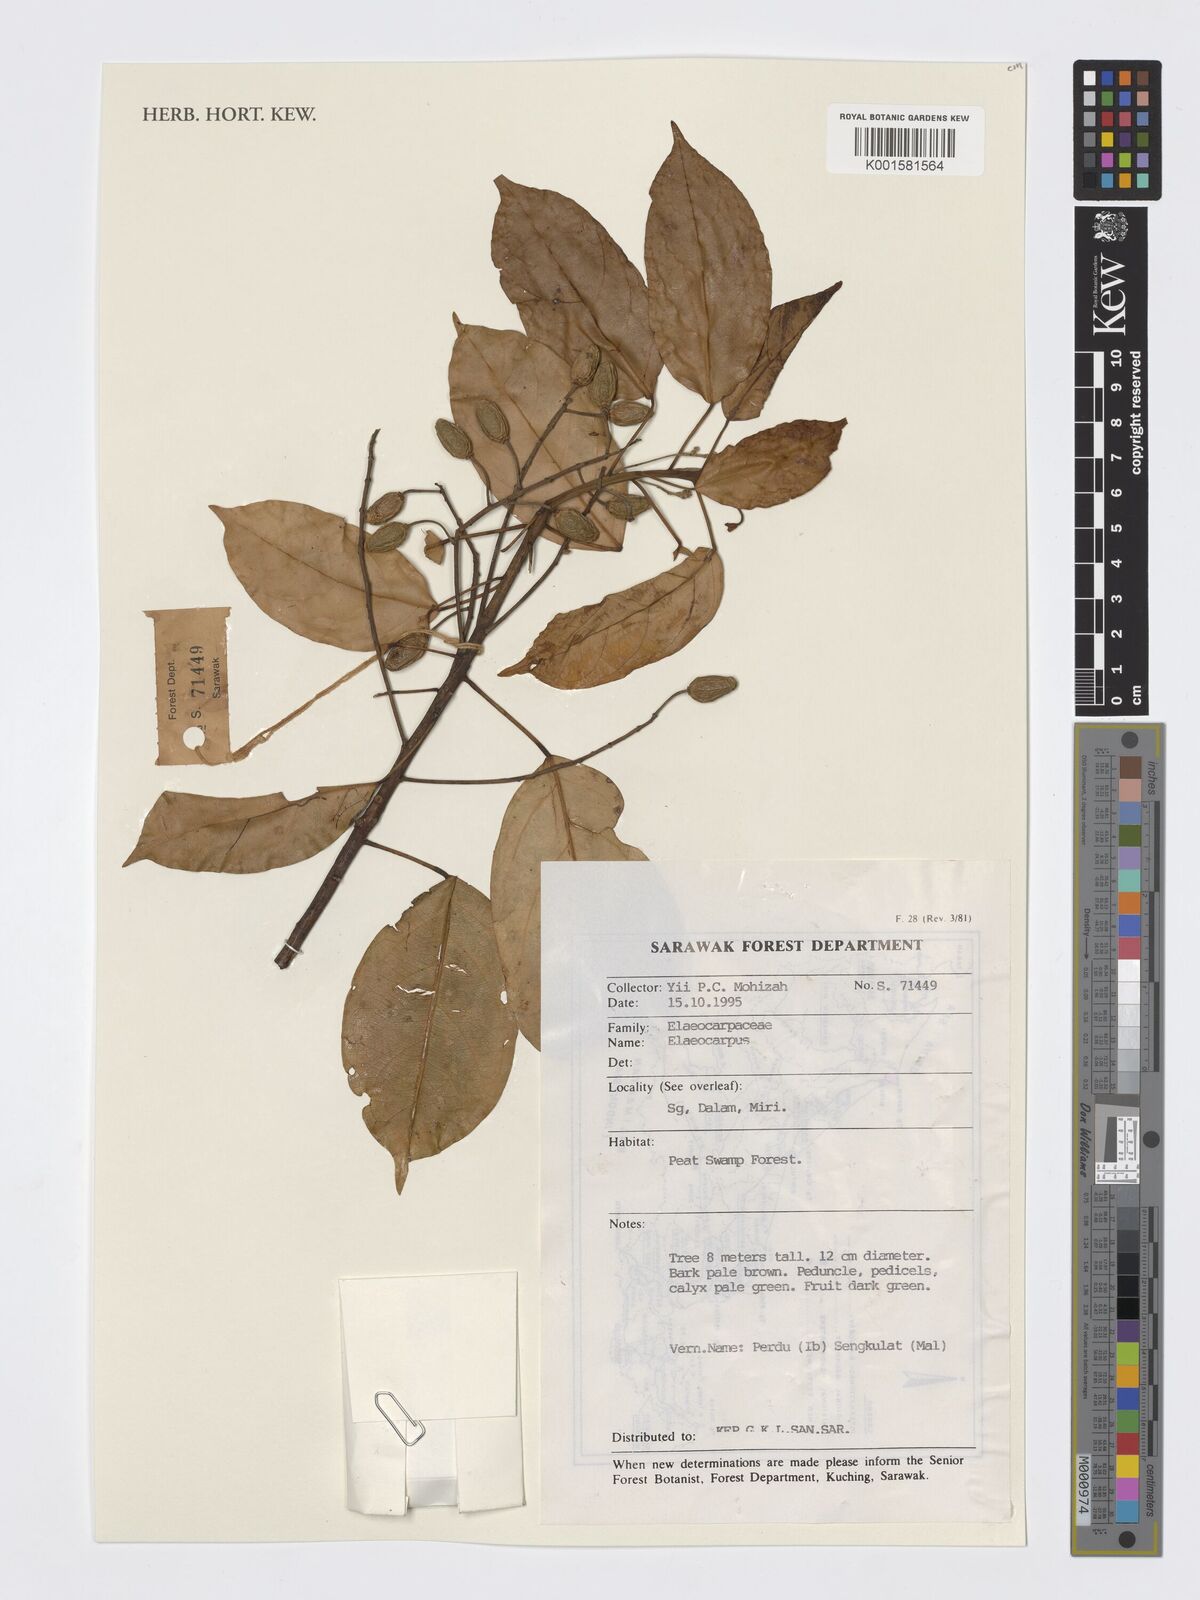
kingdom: Plantae
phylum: Tracheophyta
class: Magnoliopsida
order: Oxalidales
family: Elaeocarpaceae
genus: Elaeocarpus
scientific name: Elaeocarpus
